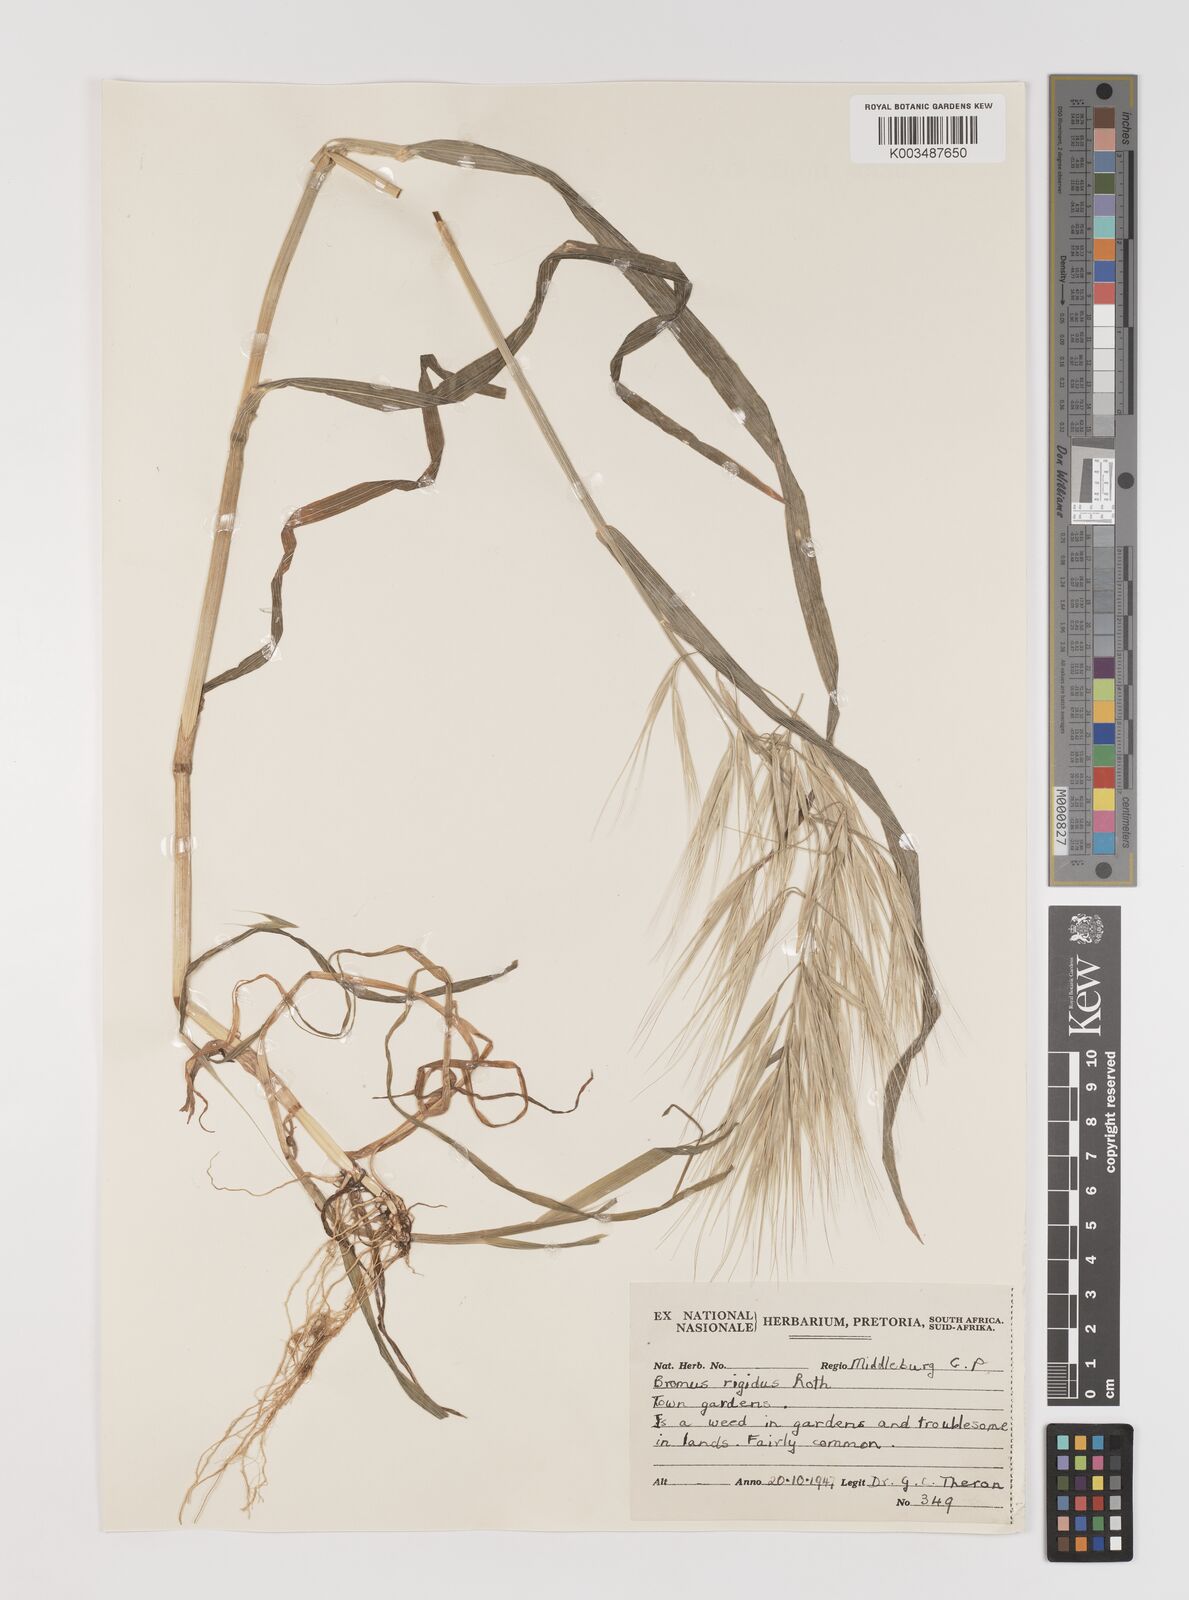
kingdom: Plantae
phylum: Tracheophyta
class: Liliopsida
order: Poales
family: Poaceae
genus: Bromus
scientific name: Bromus diandrus
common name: Ripgut brome
